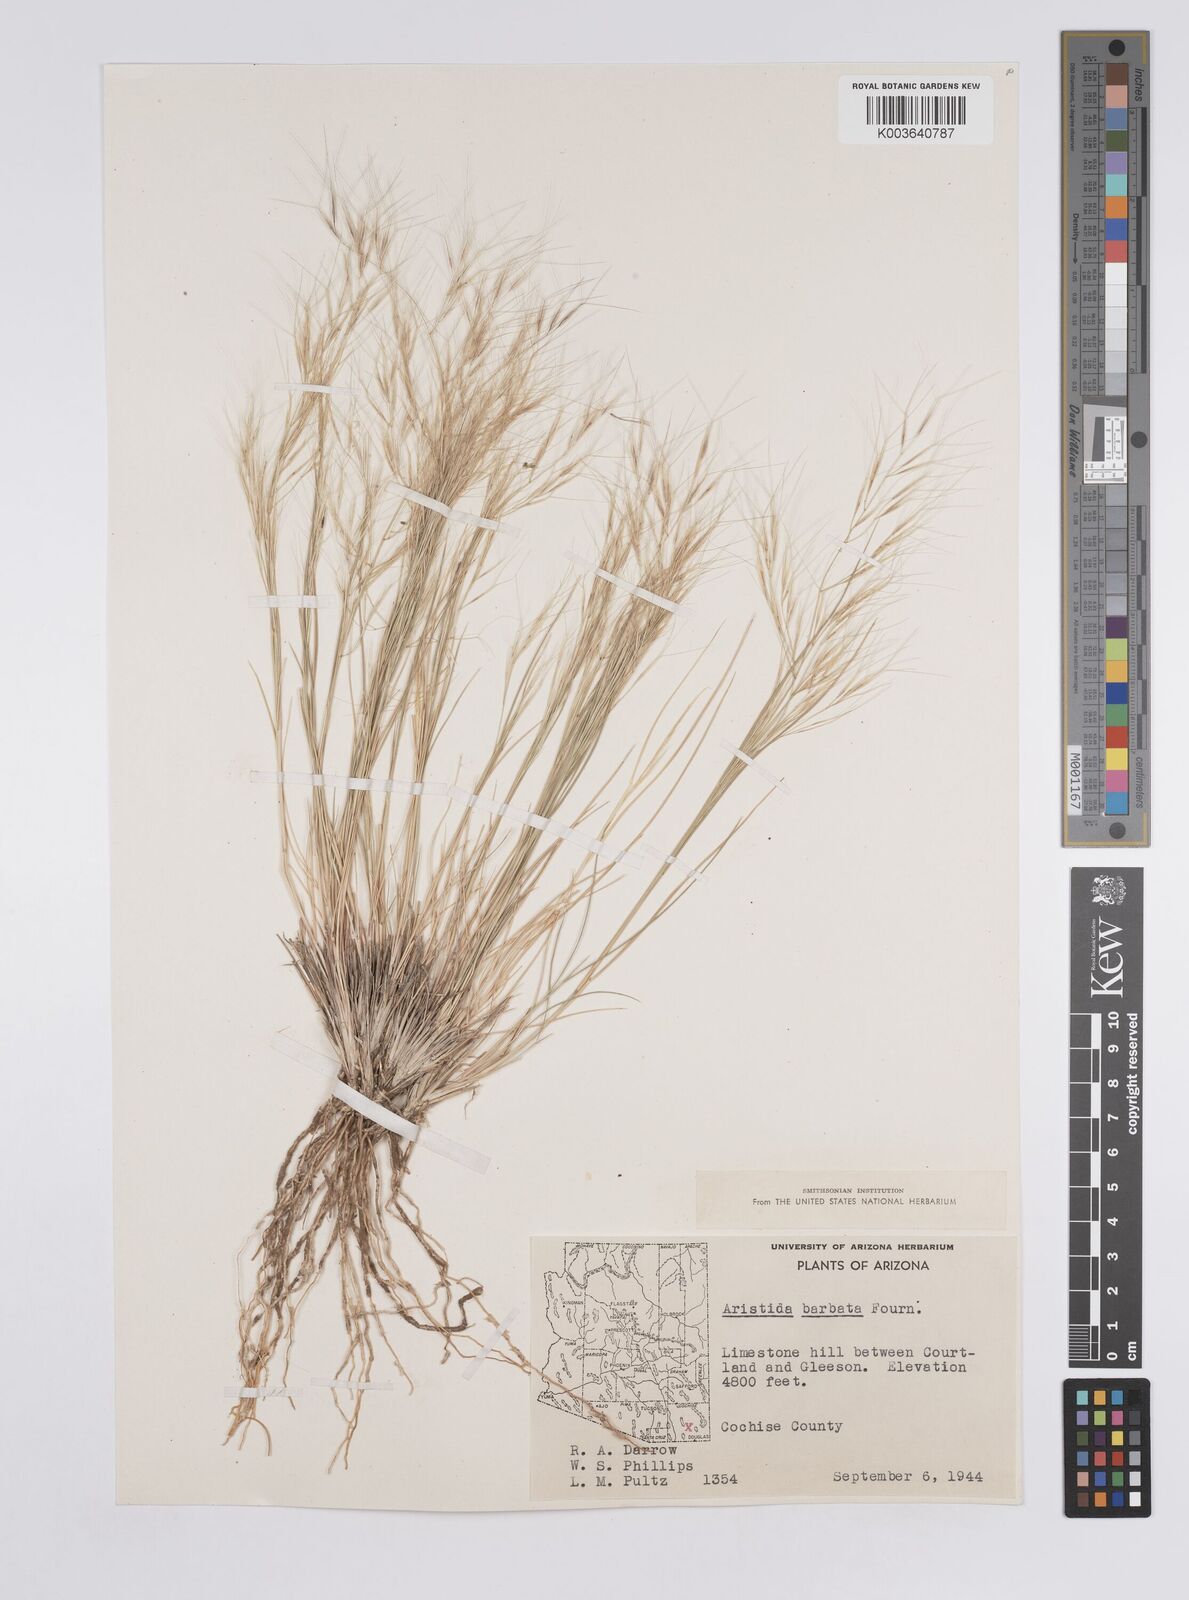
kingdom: Plantae
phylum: Tracheophyta
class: Liliopsida
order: Poales
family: Poaceae
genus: Aristida
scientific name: Aristida havardii
